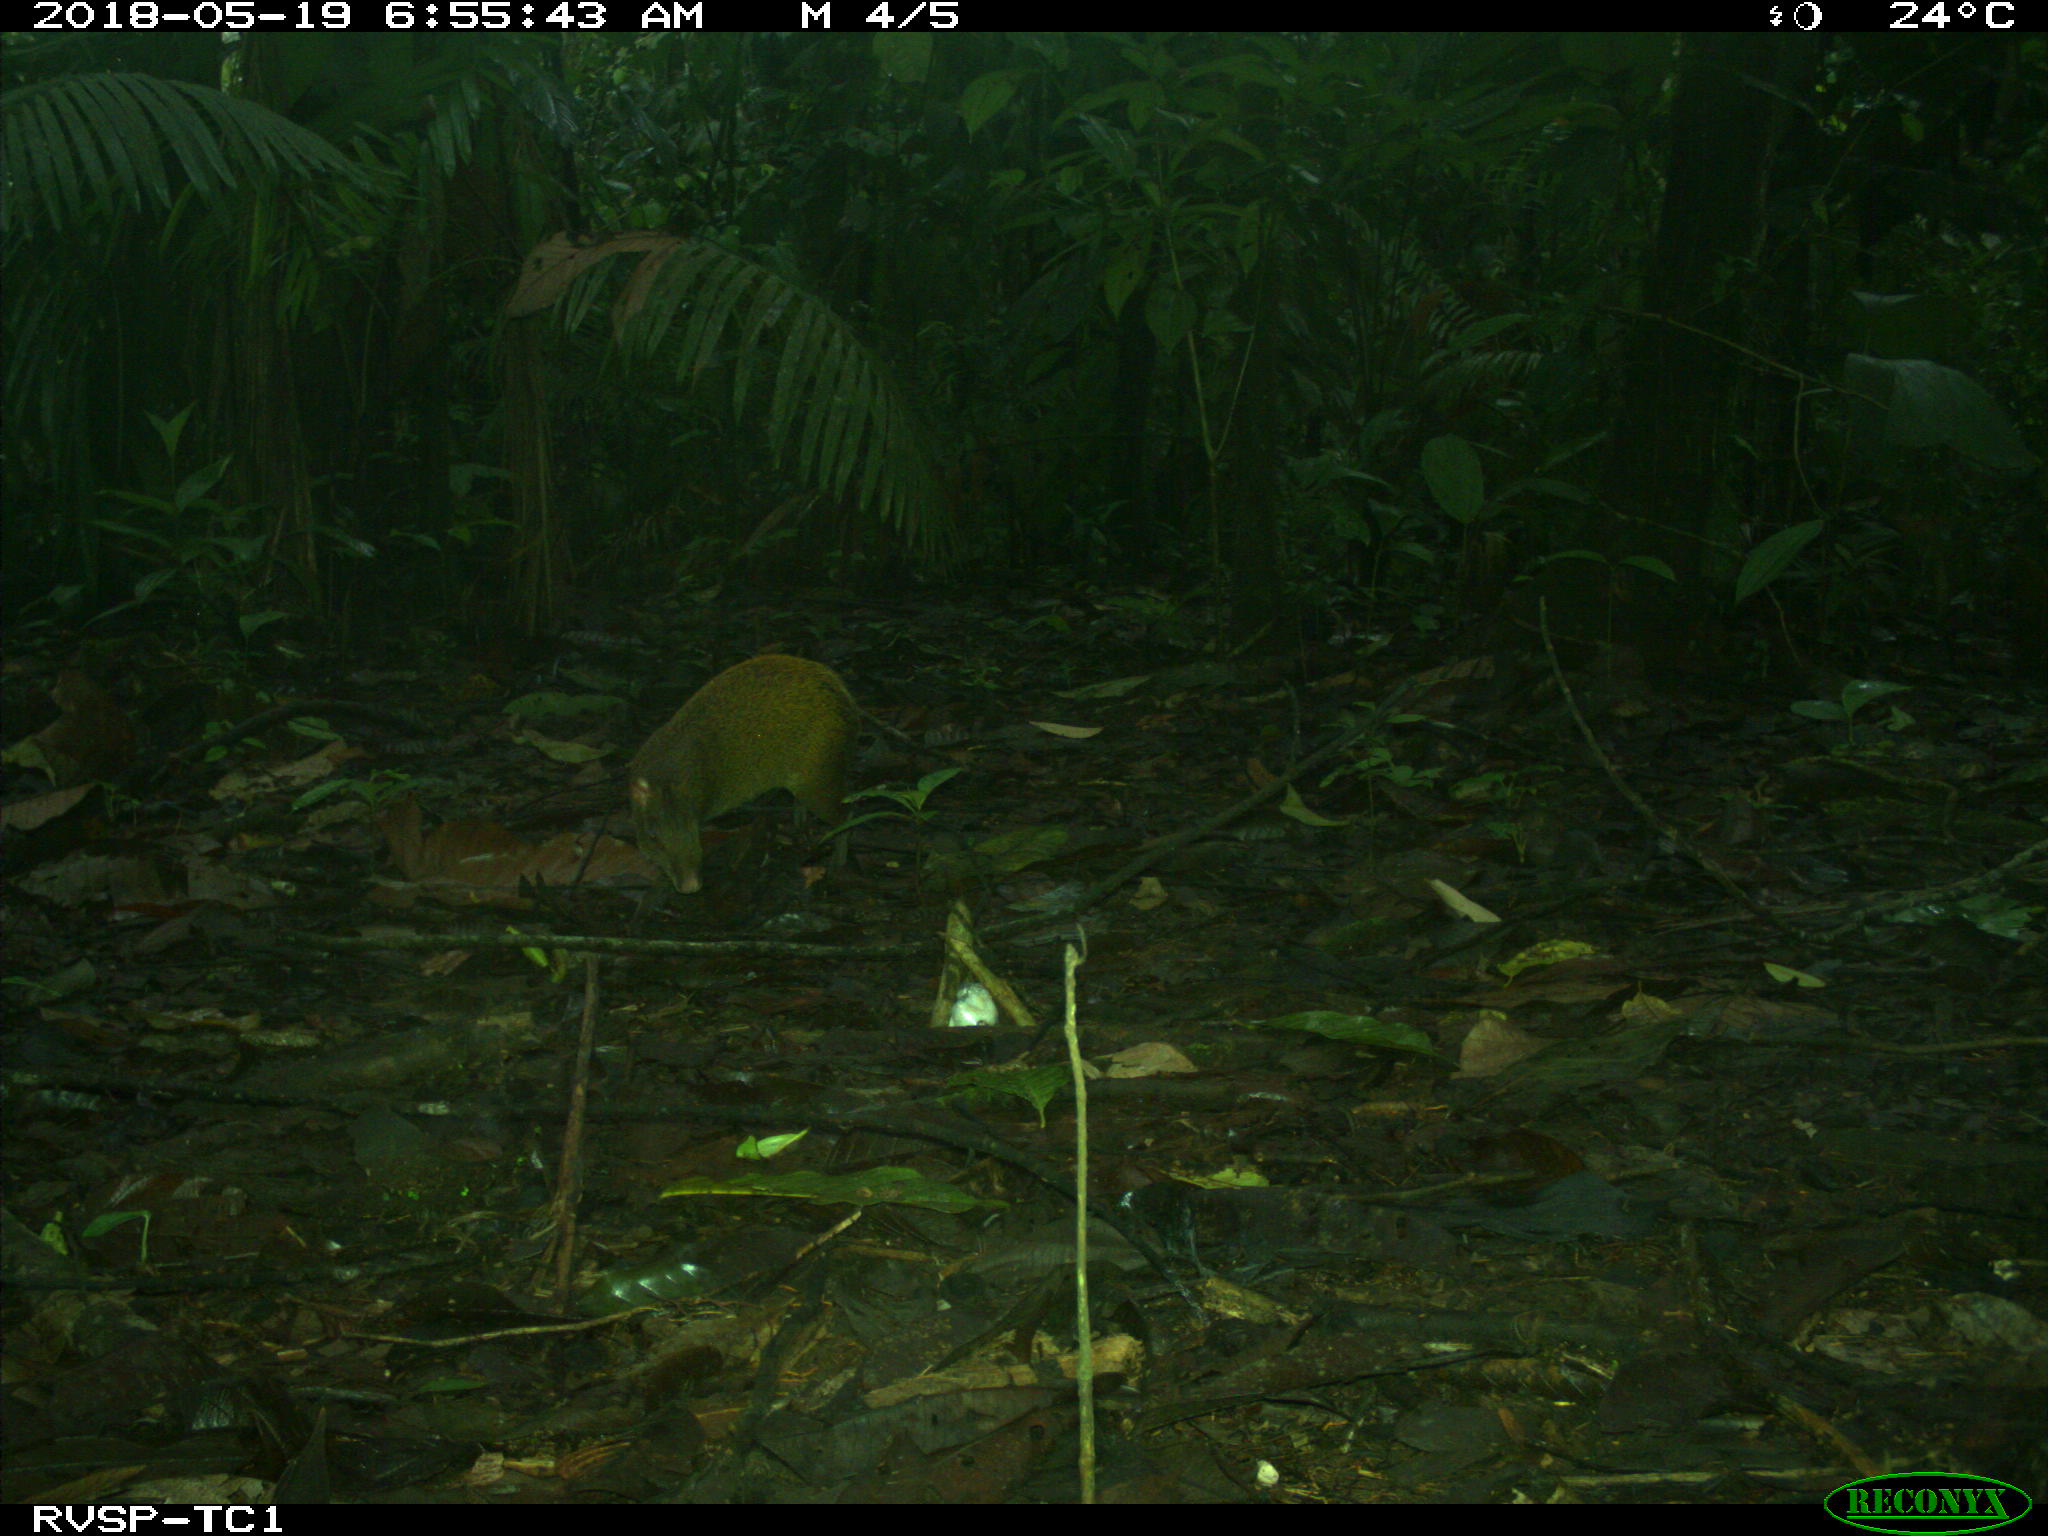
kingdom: Animalia
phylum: Chordata
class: Mammalia
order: Rodentia
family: Dasyproctidae
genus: Dasyprocta
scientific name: Dasyprocta punctata
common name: Central american agouti
